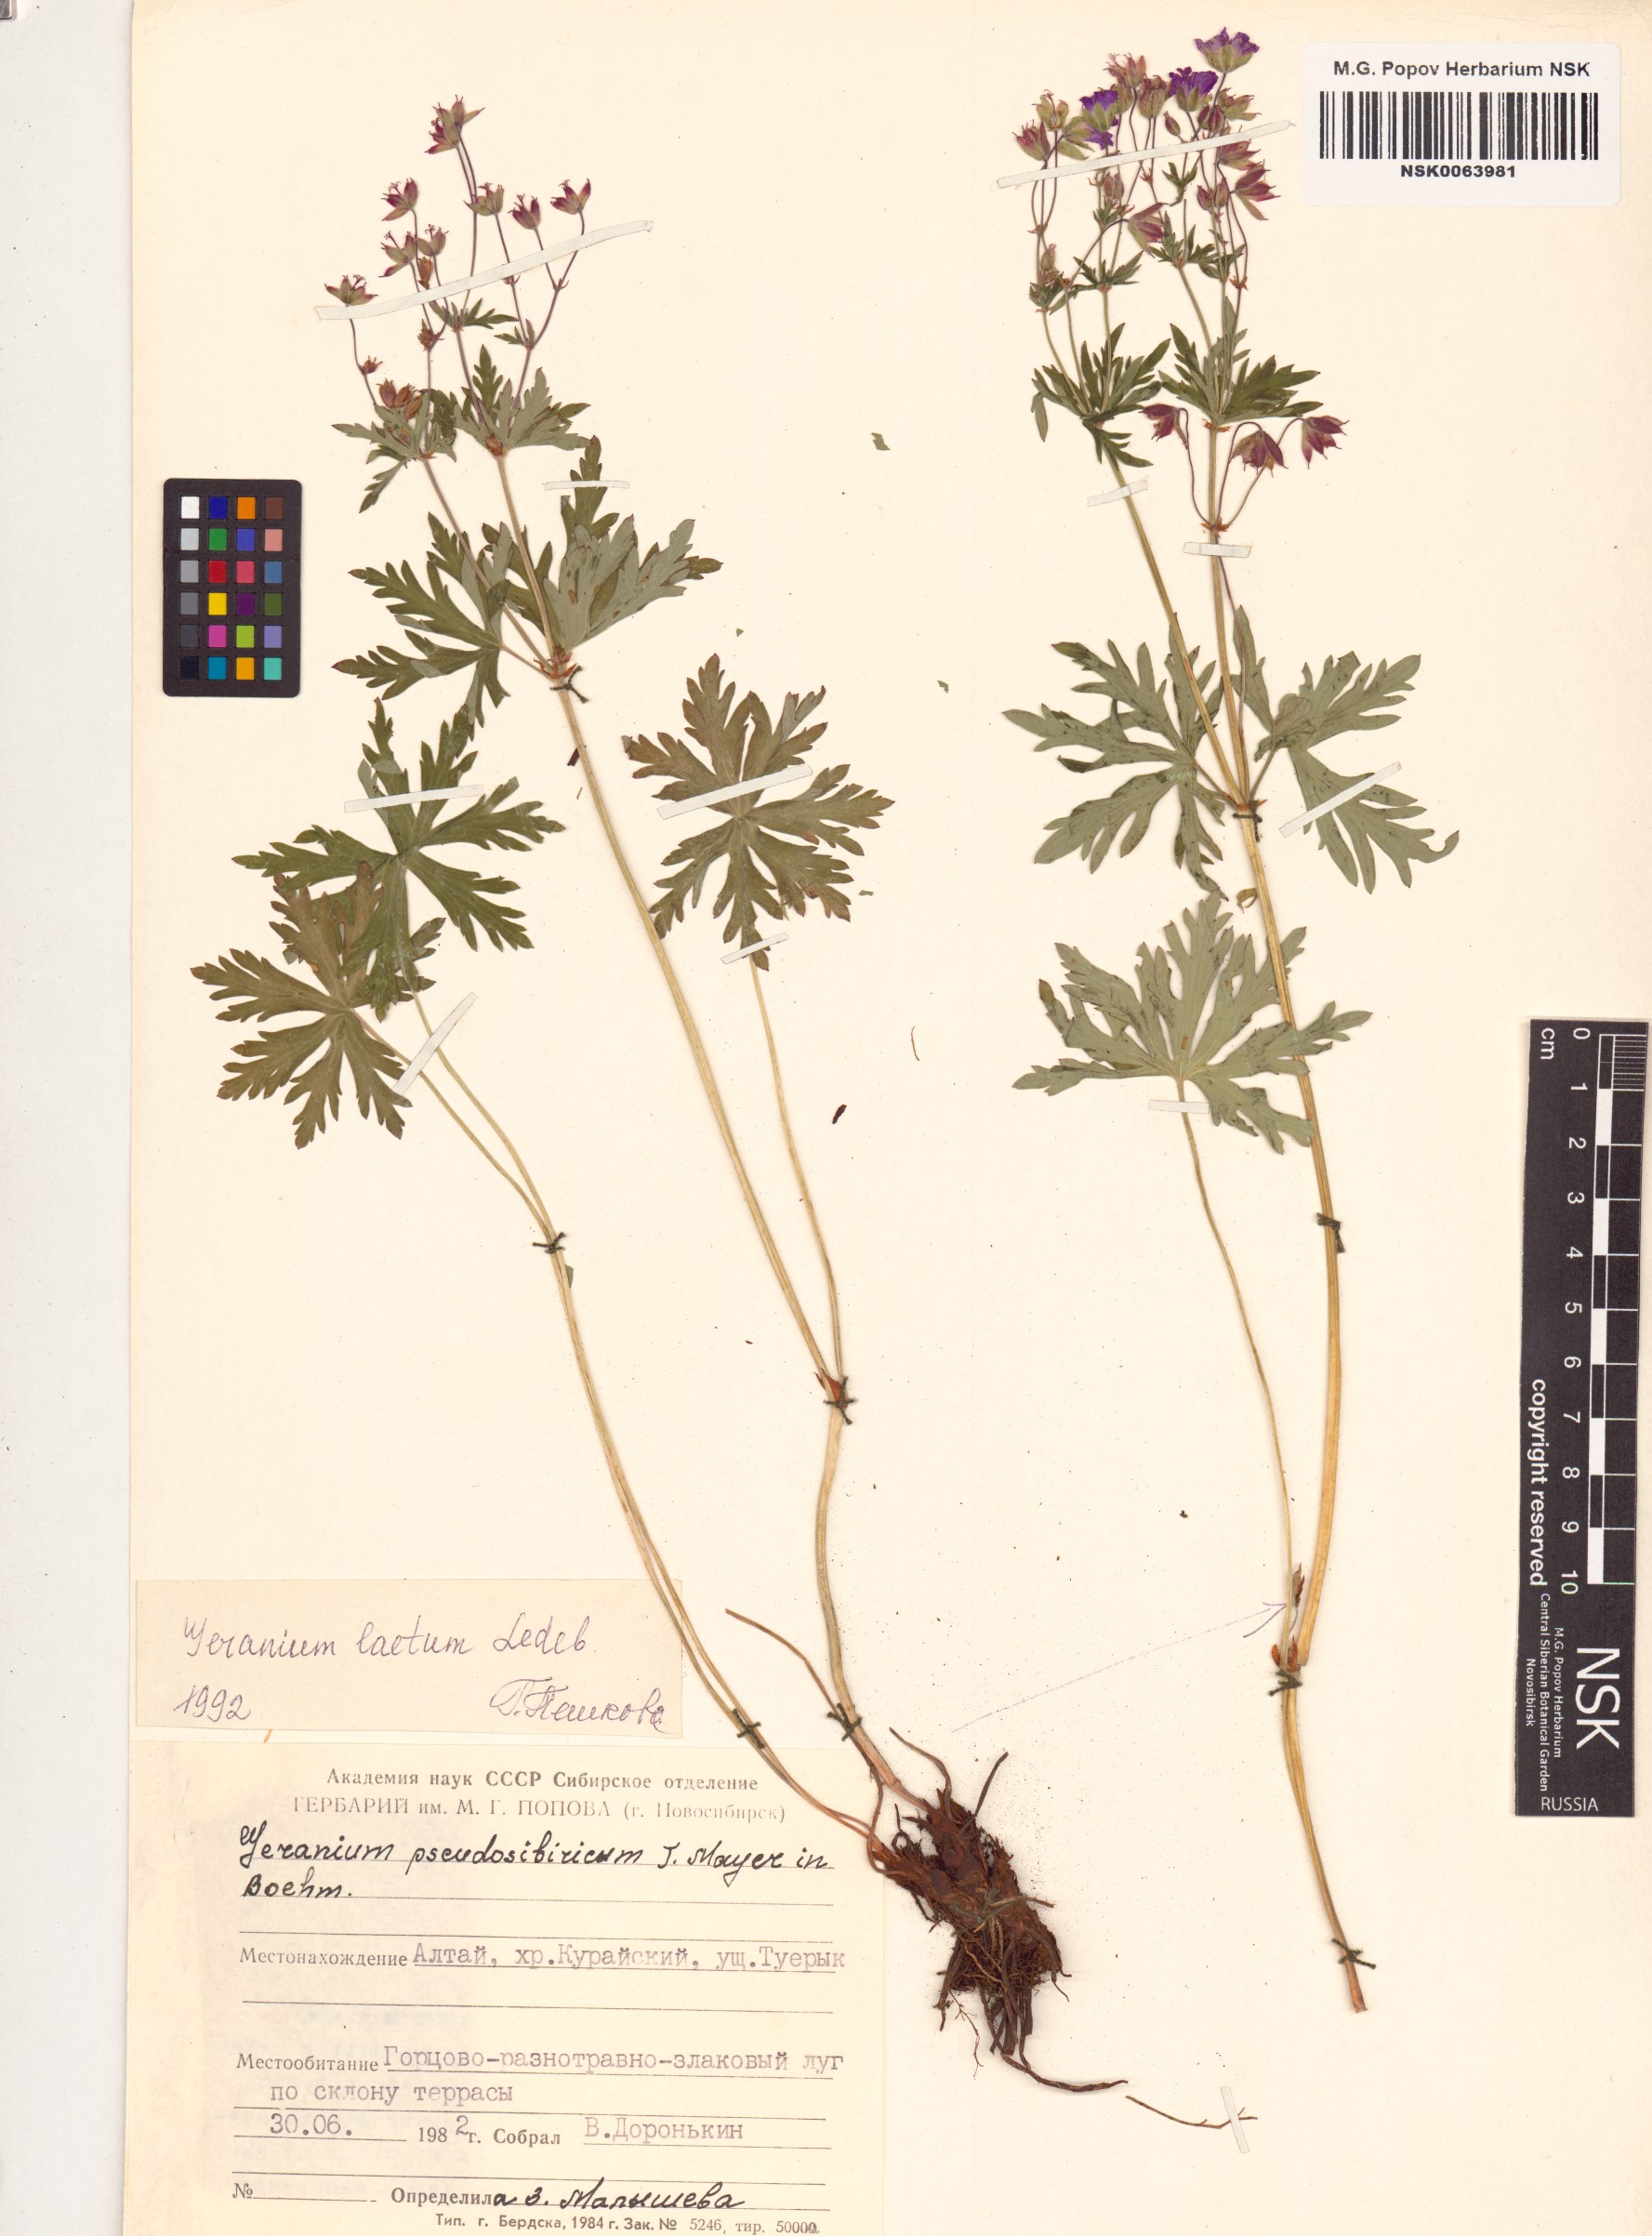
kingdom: Plantae
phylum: Tracheophyta
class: Magnoliopsida
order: Geraniales
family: Geraniaceae
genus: Geranium
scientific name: Geranium pseudosibiricum
